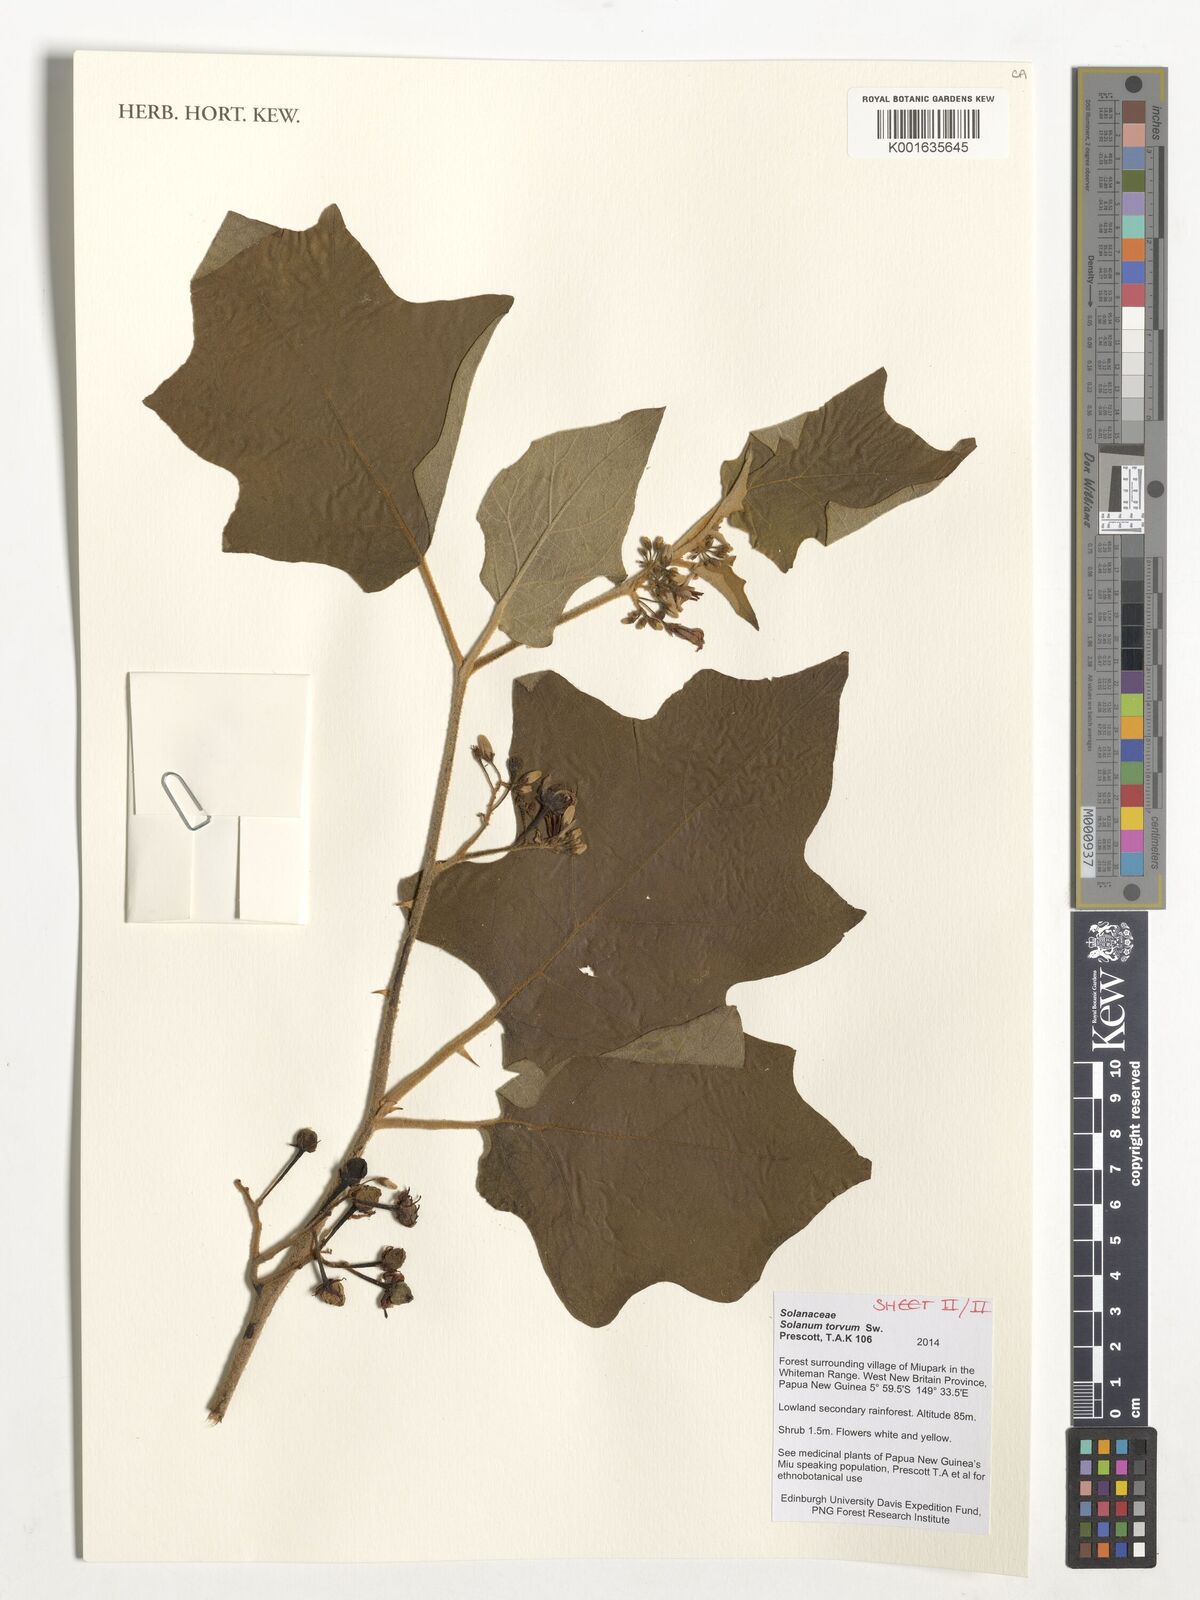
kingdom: Plantae
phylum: Tracheophyta
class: Magnoliopsida
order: Solanales
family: Solanaceae
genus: Solanum
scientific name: Solanum torvum
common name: Turkey berry
